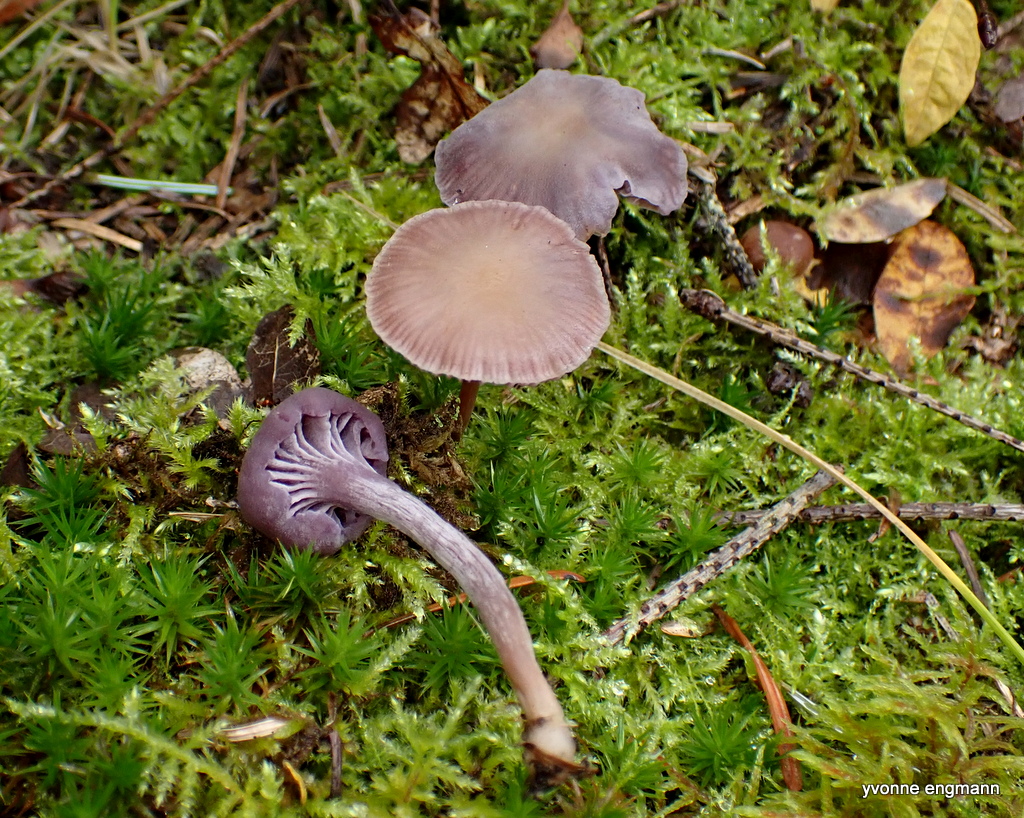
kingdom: Fungi
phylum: Basidiomycota
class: Agaricomycetes
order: Agaricales
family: Hydnangiaceae
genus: Laccaria
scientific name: Laccaria amethystina
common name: violet ametysthat
